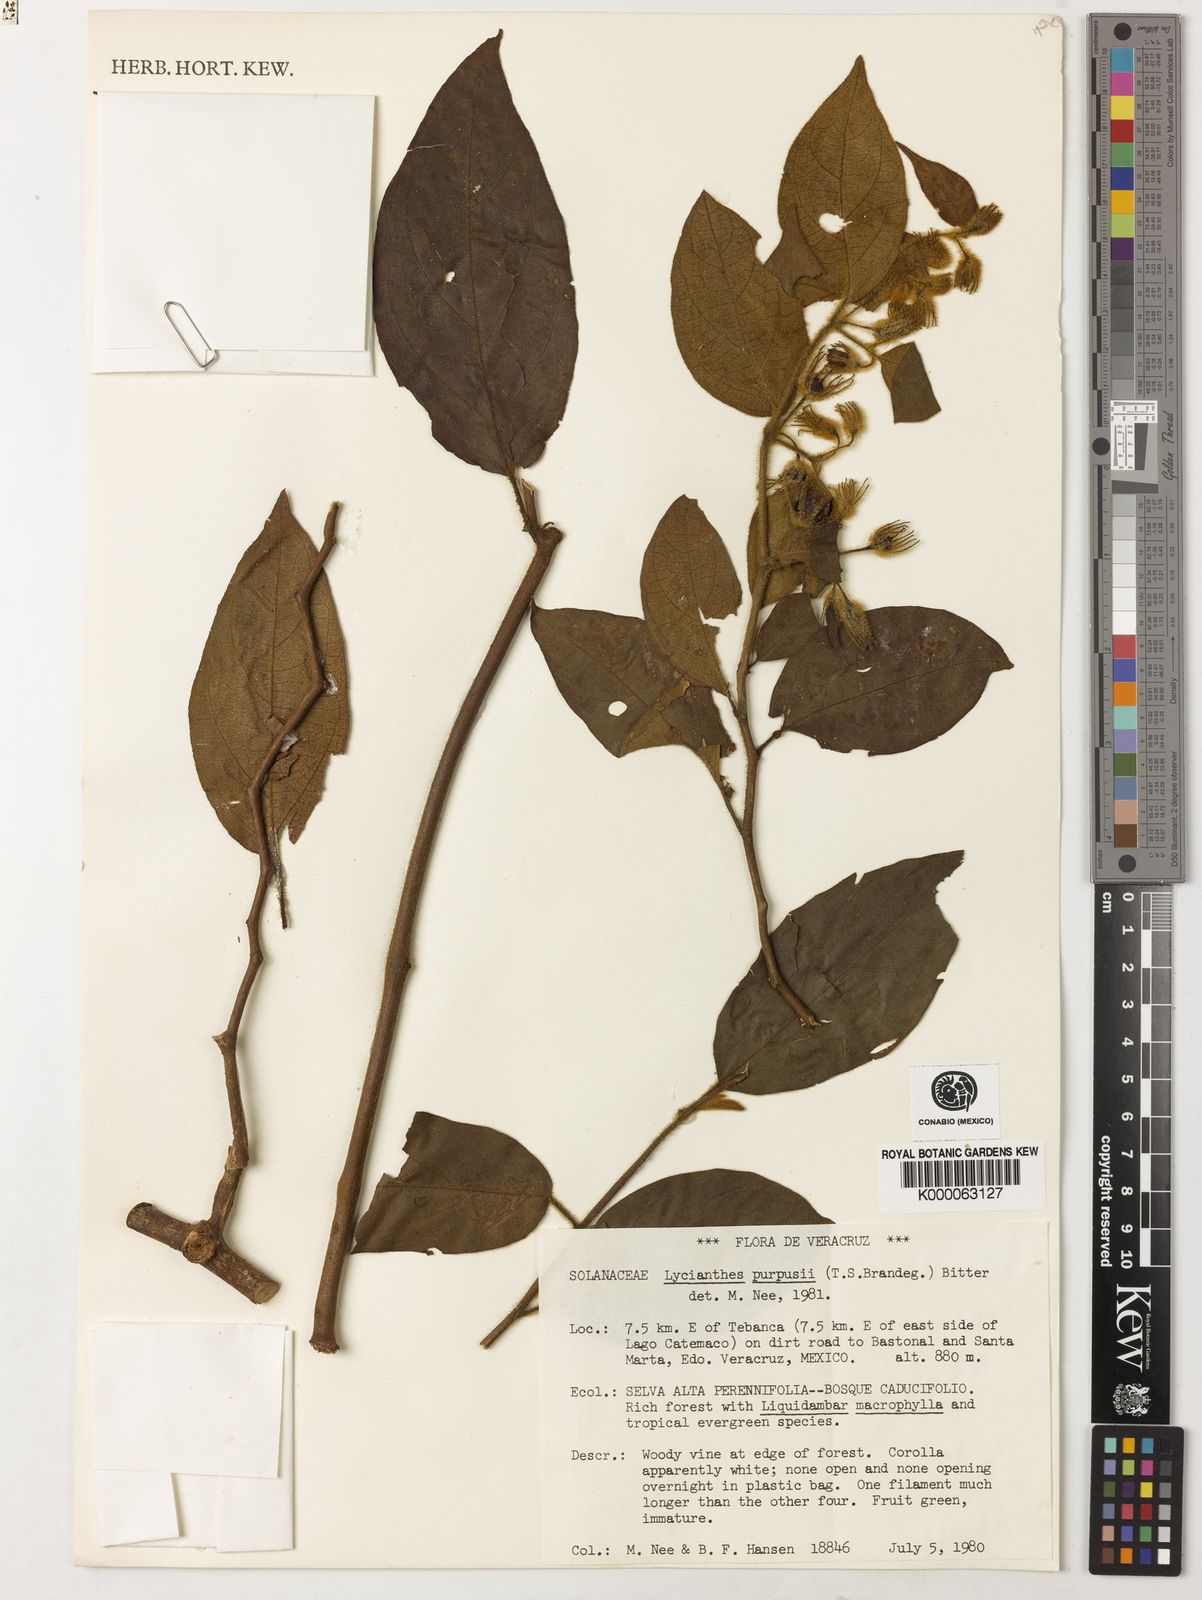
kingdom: Plantae
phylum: Tracheophyta
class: Magnoliopsida
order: Solanales
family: Solanaceae
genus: Lycianthes
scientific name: Lycianthes purpusii
